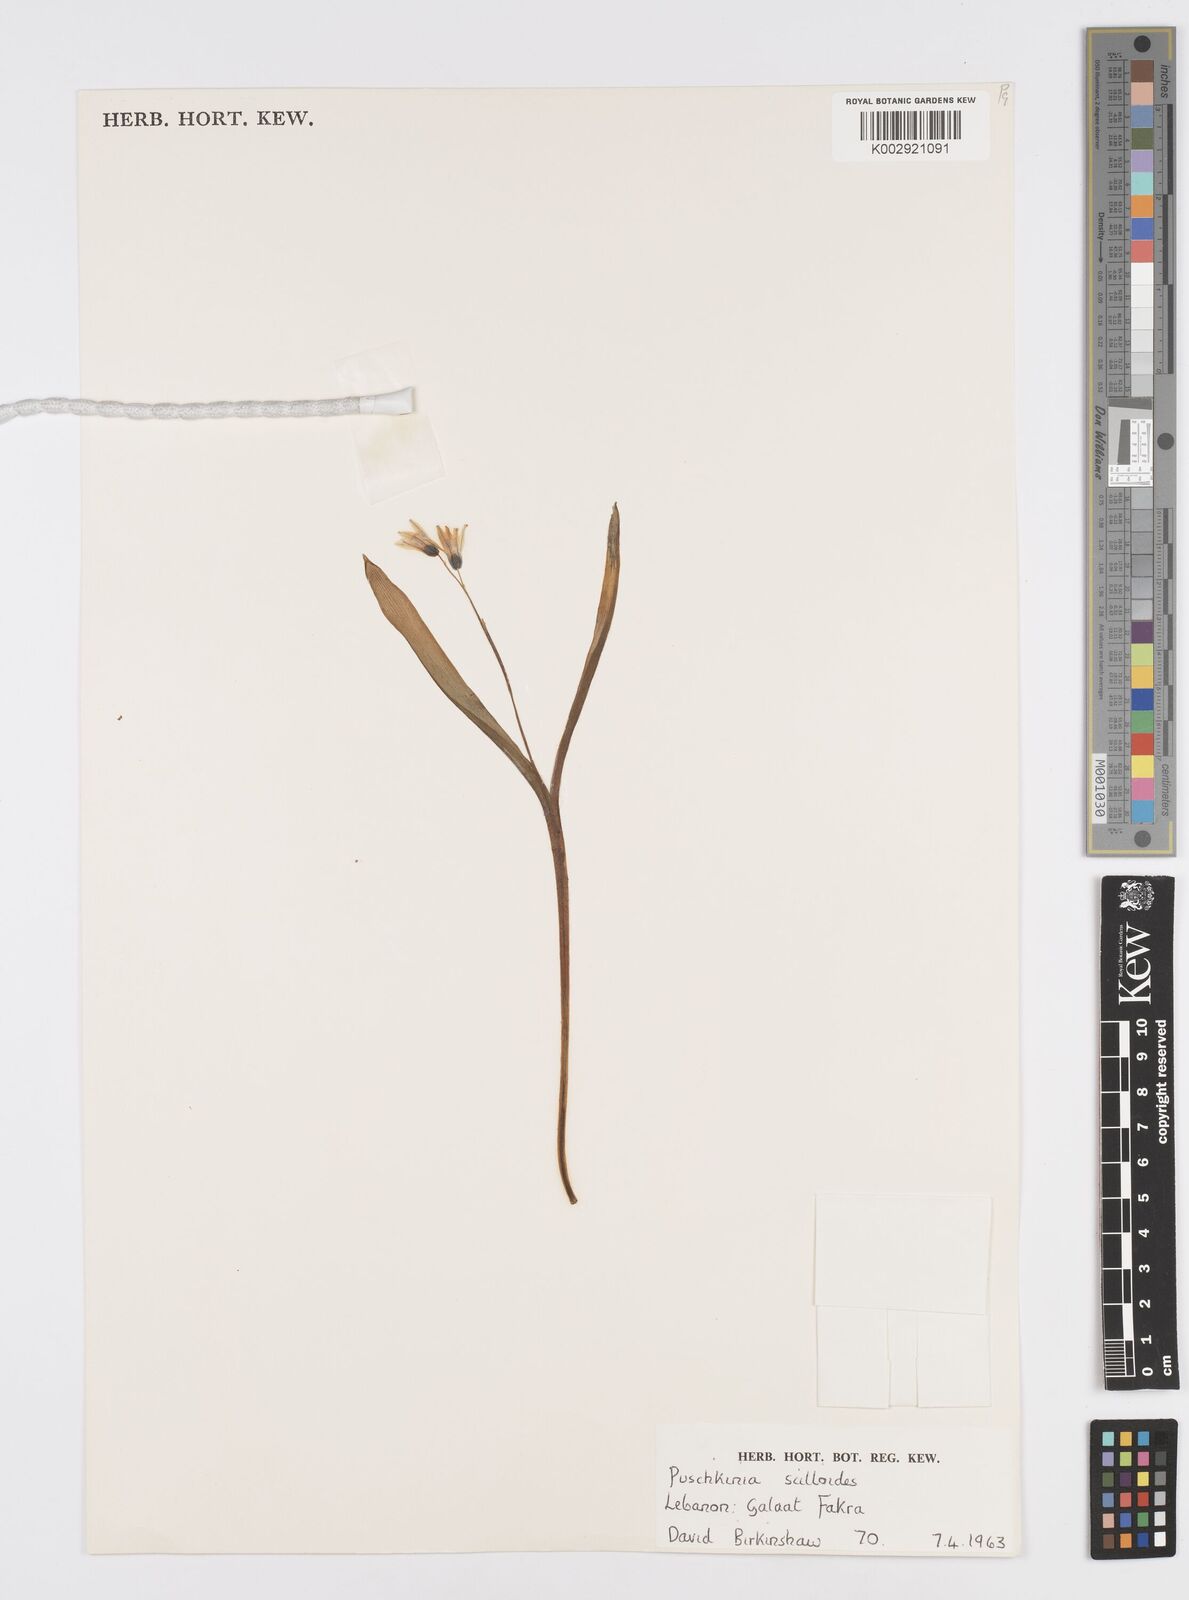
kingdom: Plantae
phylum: Tracheophyta
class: Liliopsida
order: Asparagales
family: Asparagaceae
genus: Puschkinia
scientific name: Puschkinia scilloides
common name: Striped squill
